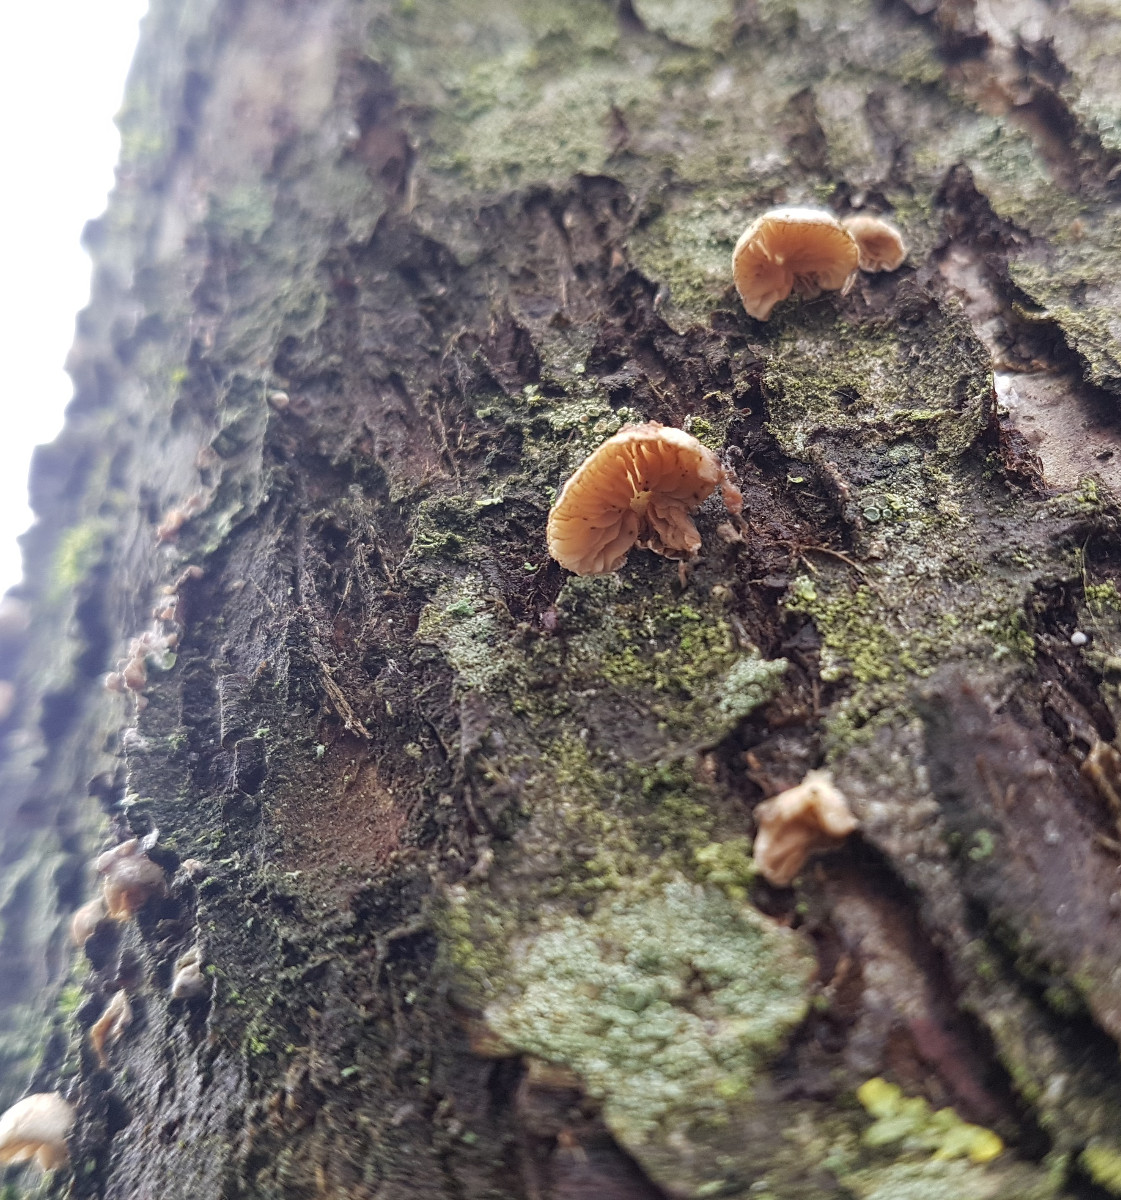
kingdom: Fungi
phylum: Basidiomycota
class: Agaricomycetes
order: Agaricales
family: Crepidotaceae
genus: Crepidotus
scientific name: Crepidotus
